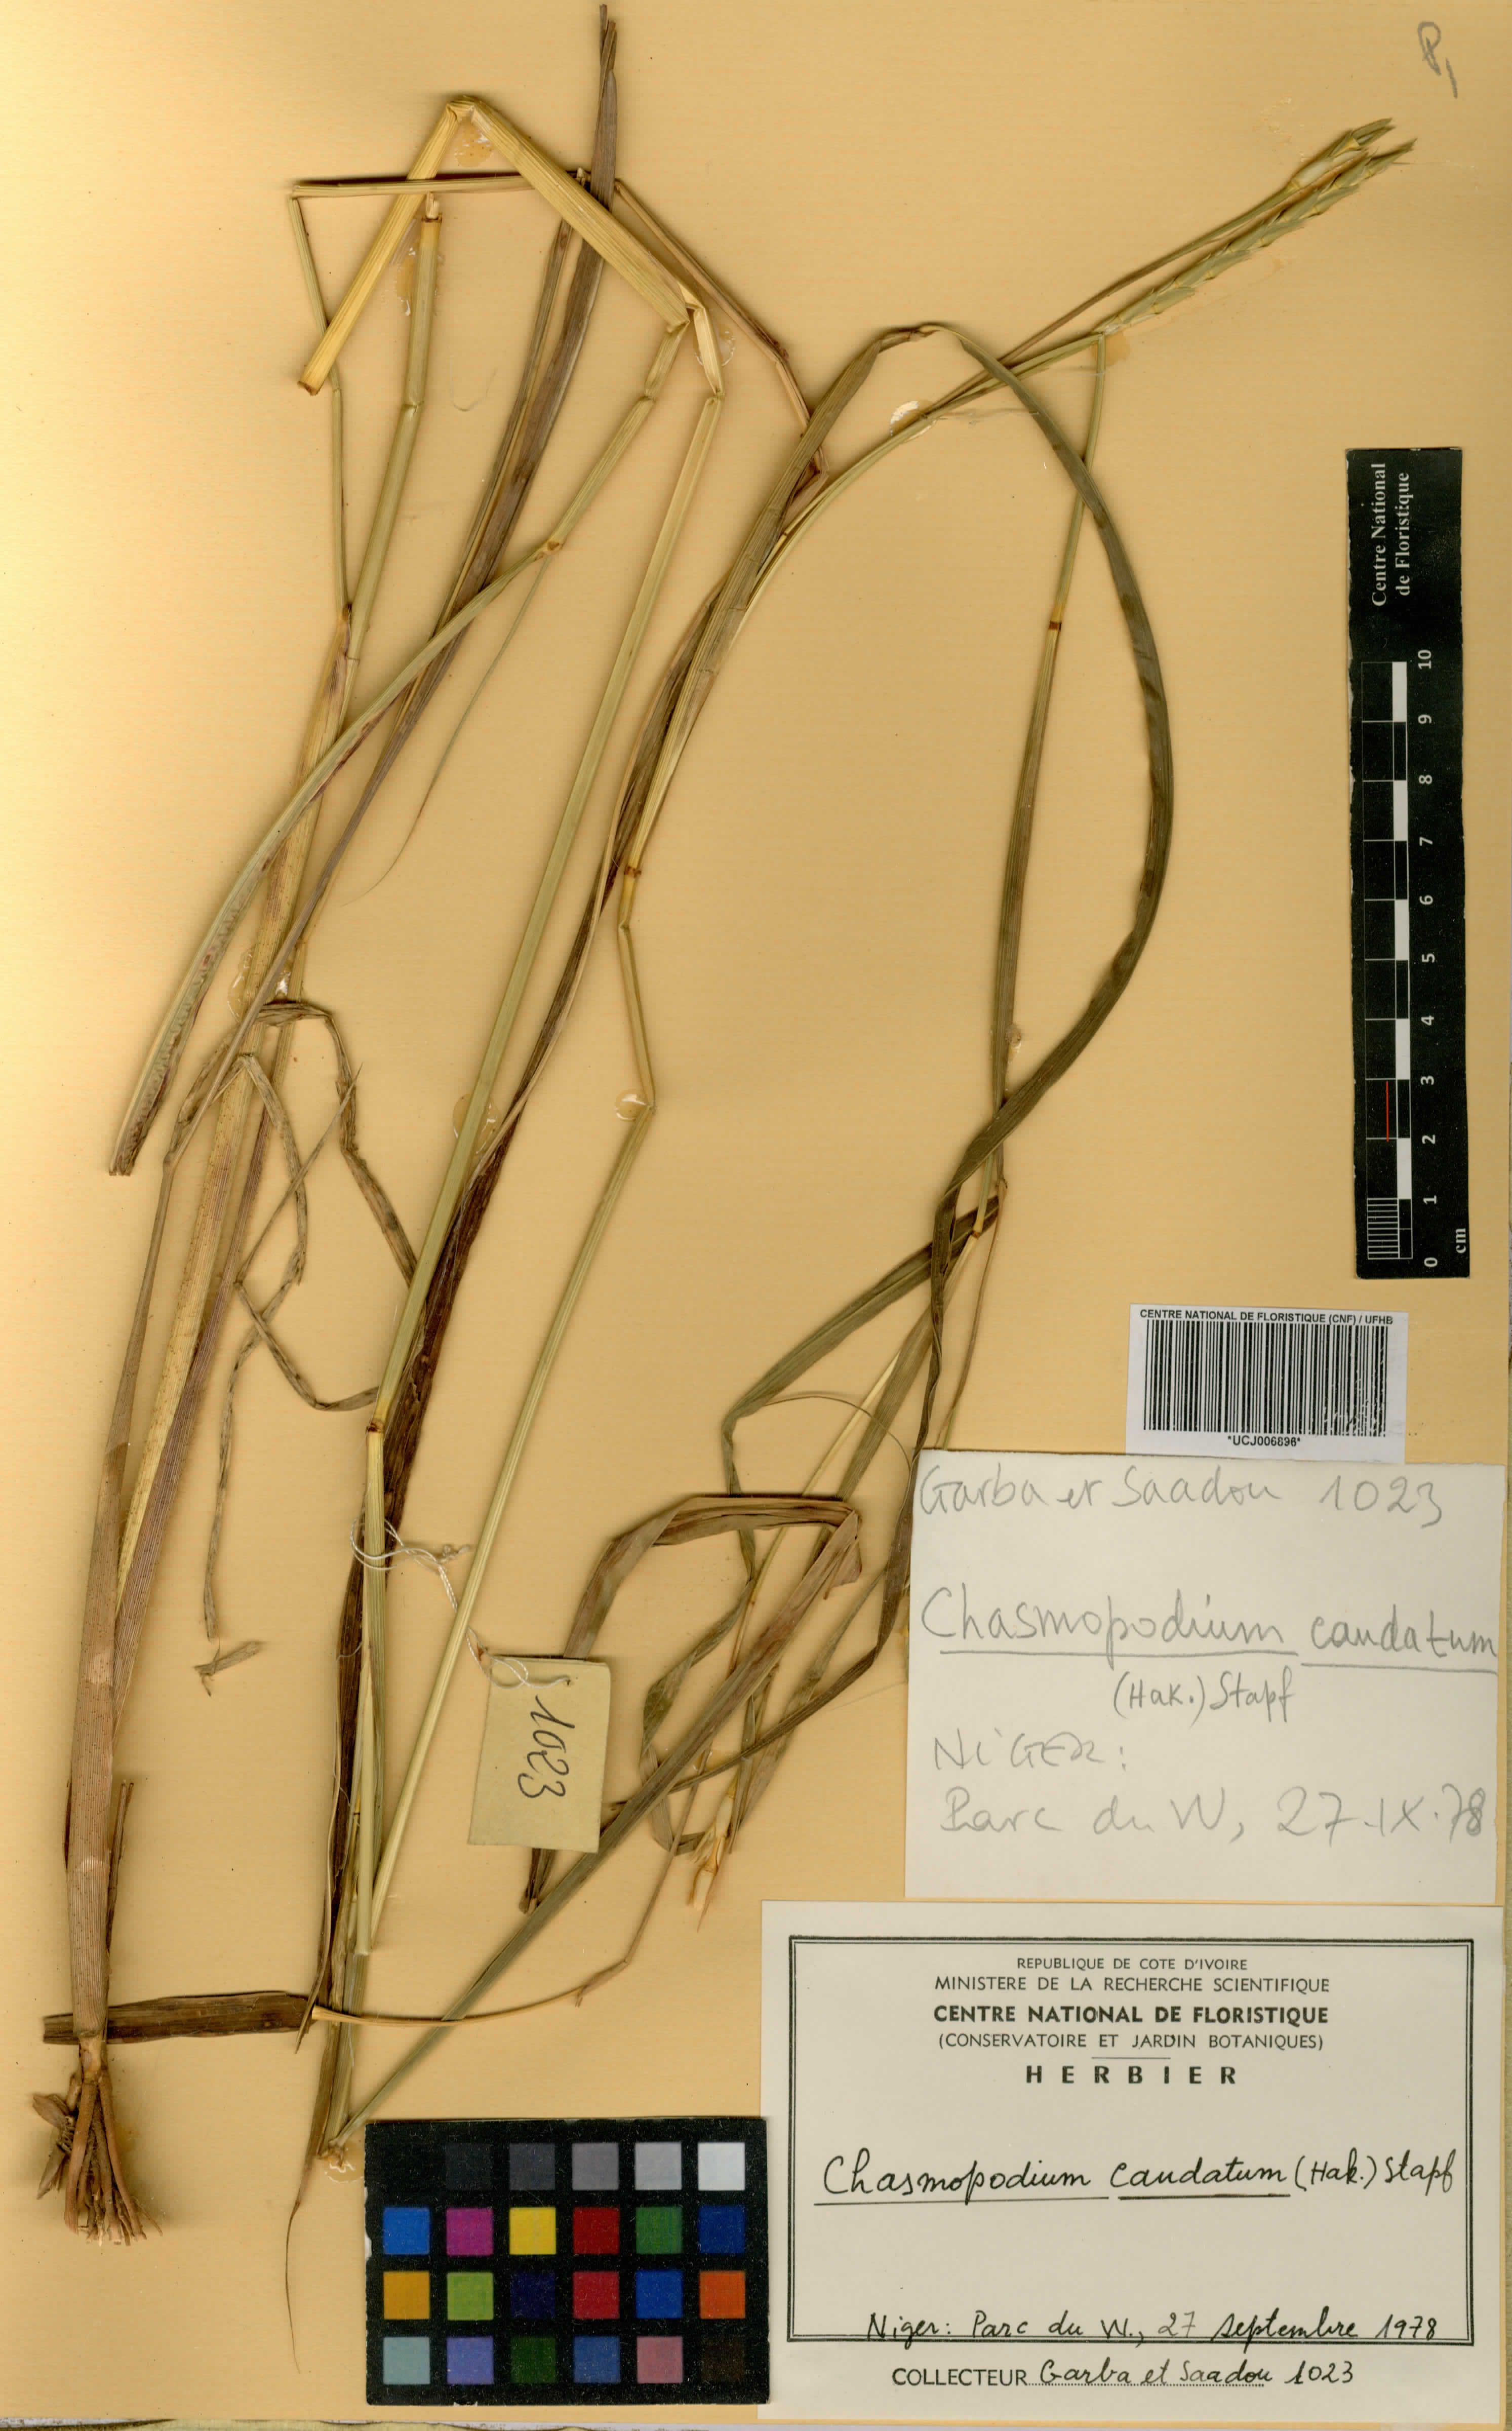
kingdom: Plantae
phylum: Tracheophyta
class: Liliopsida
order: Poales
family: Poaceae
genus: Chasmopodium
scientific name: Chasmopodium caudatum
